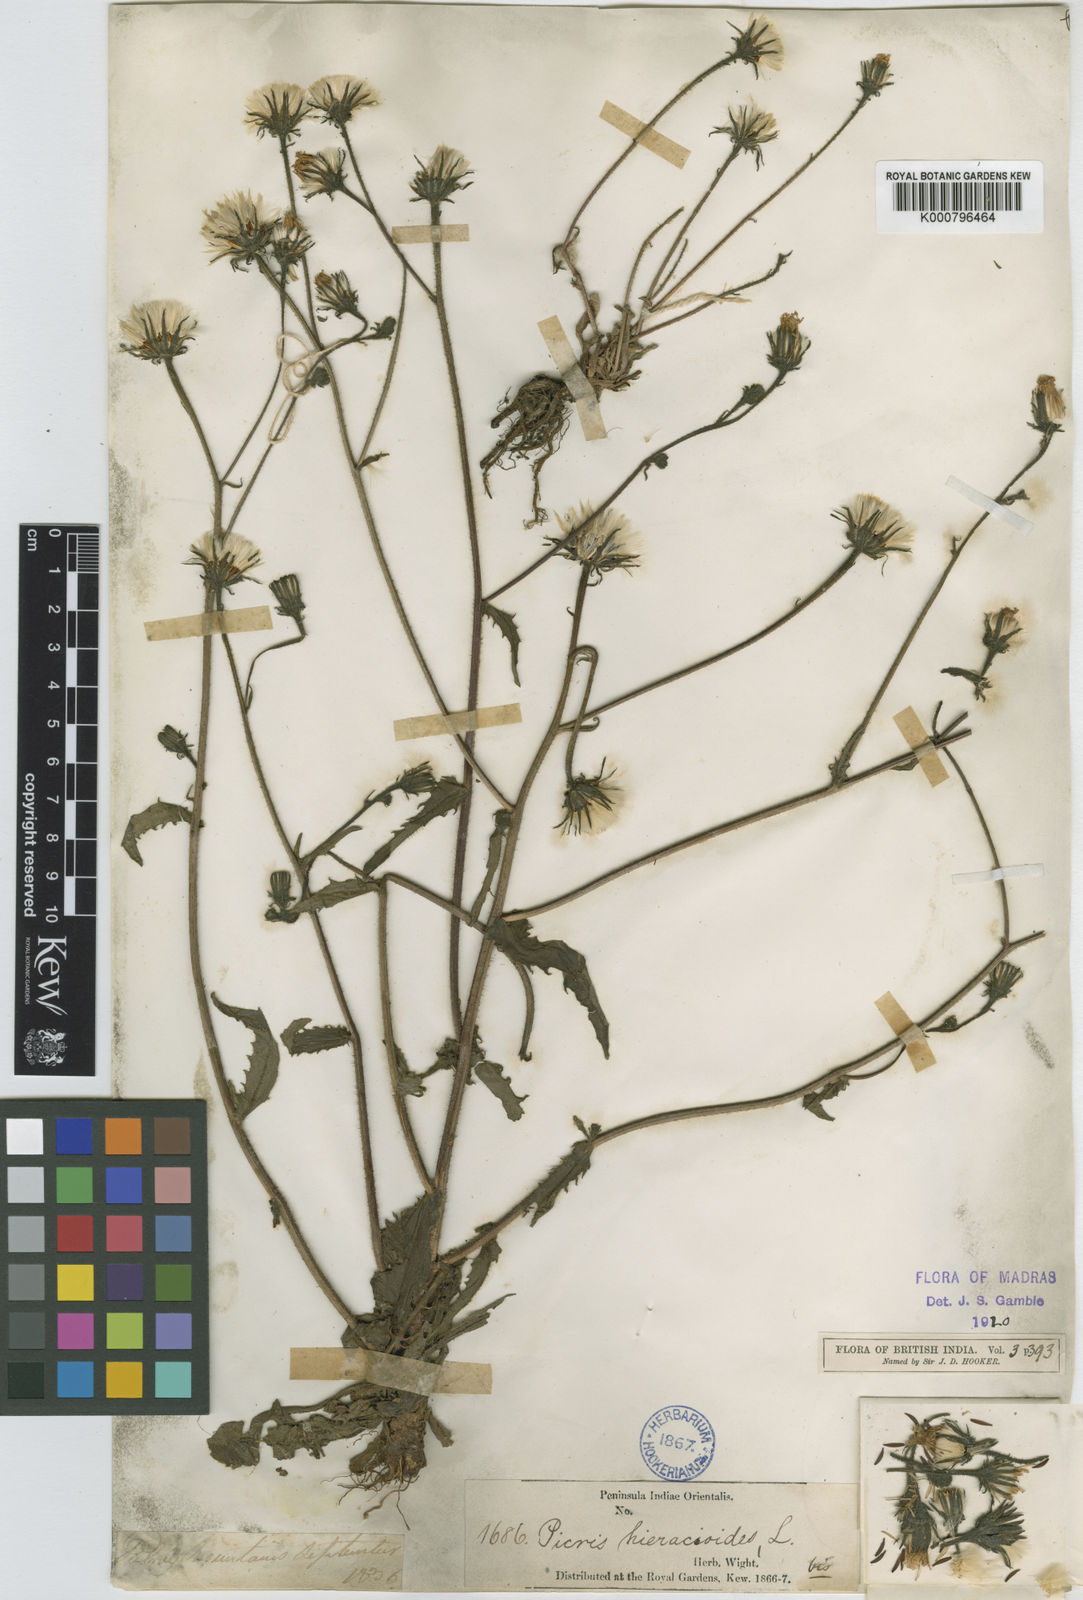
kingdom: Plantae
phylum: Tracheophyta
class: Magnoliopsida
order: Asterales
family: Asteraceae
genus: Picris
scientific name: Picris nuristanica
